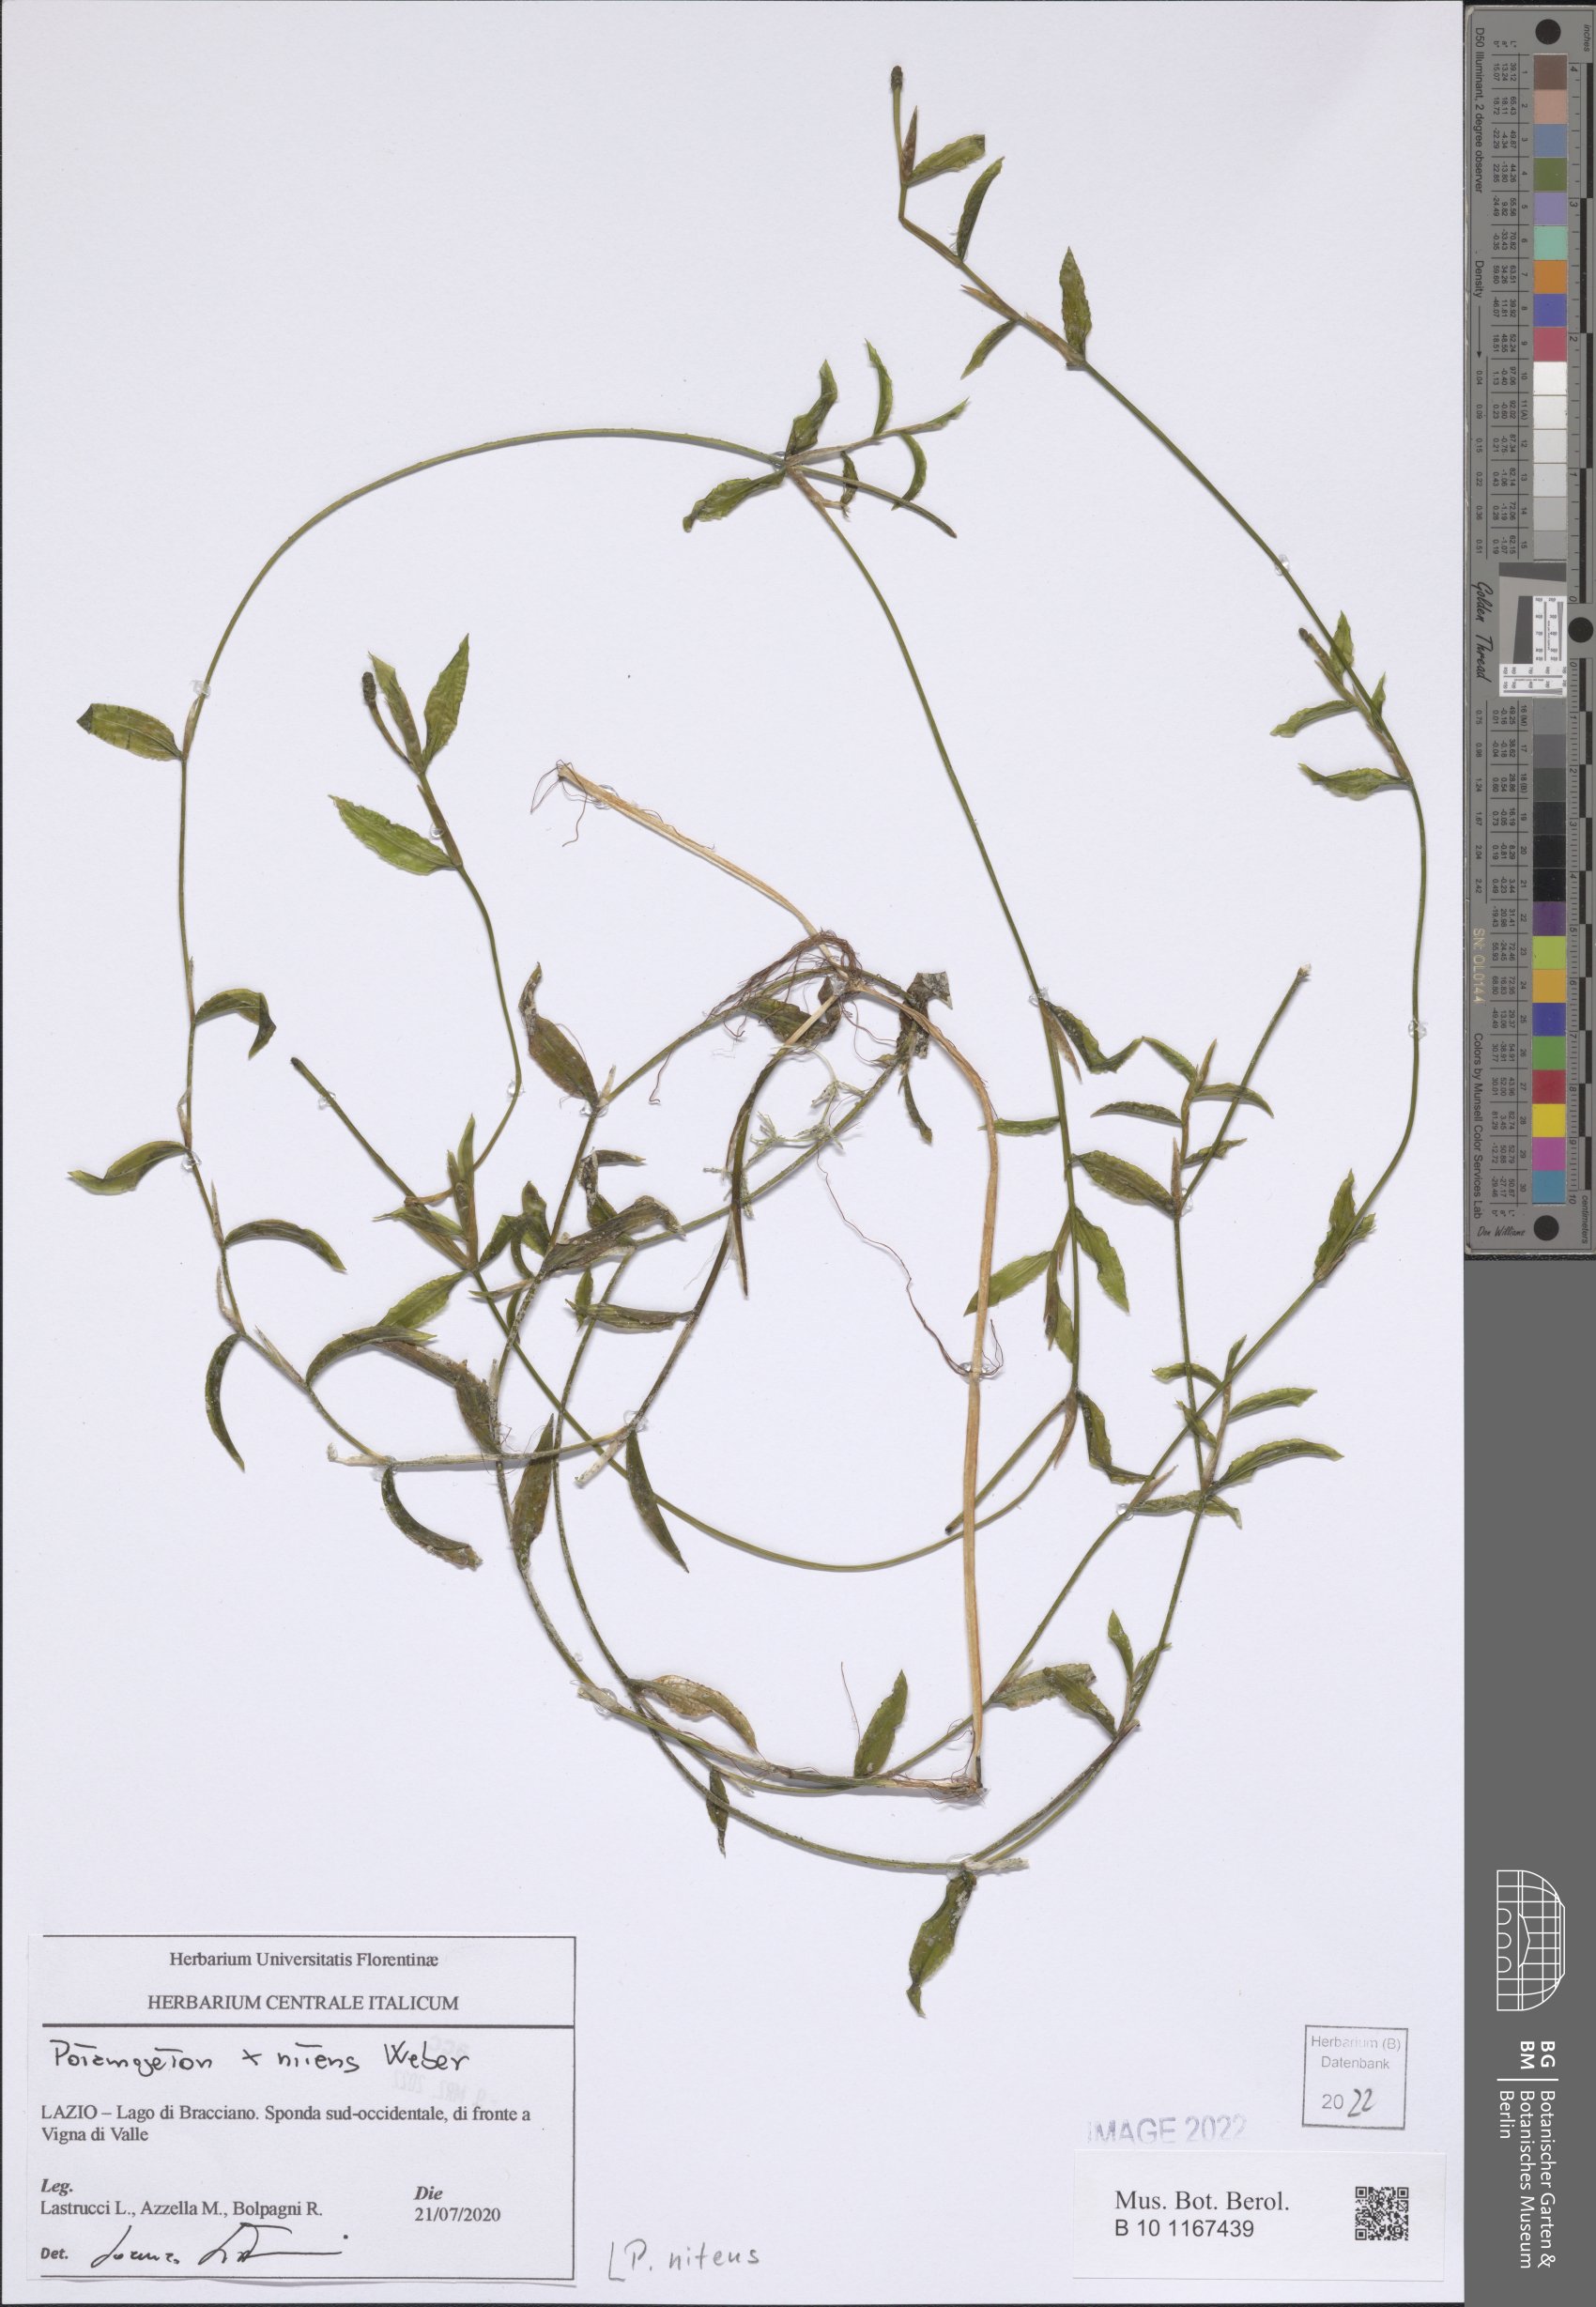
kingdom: Plantae
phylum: Tracheophyta
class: Liliopsida
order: Alismatales
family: Potamogetonaceae
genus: Potamogeton
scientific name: Potamogeton lucens
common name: Shining pondweed
